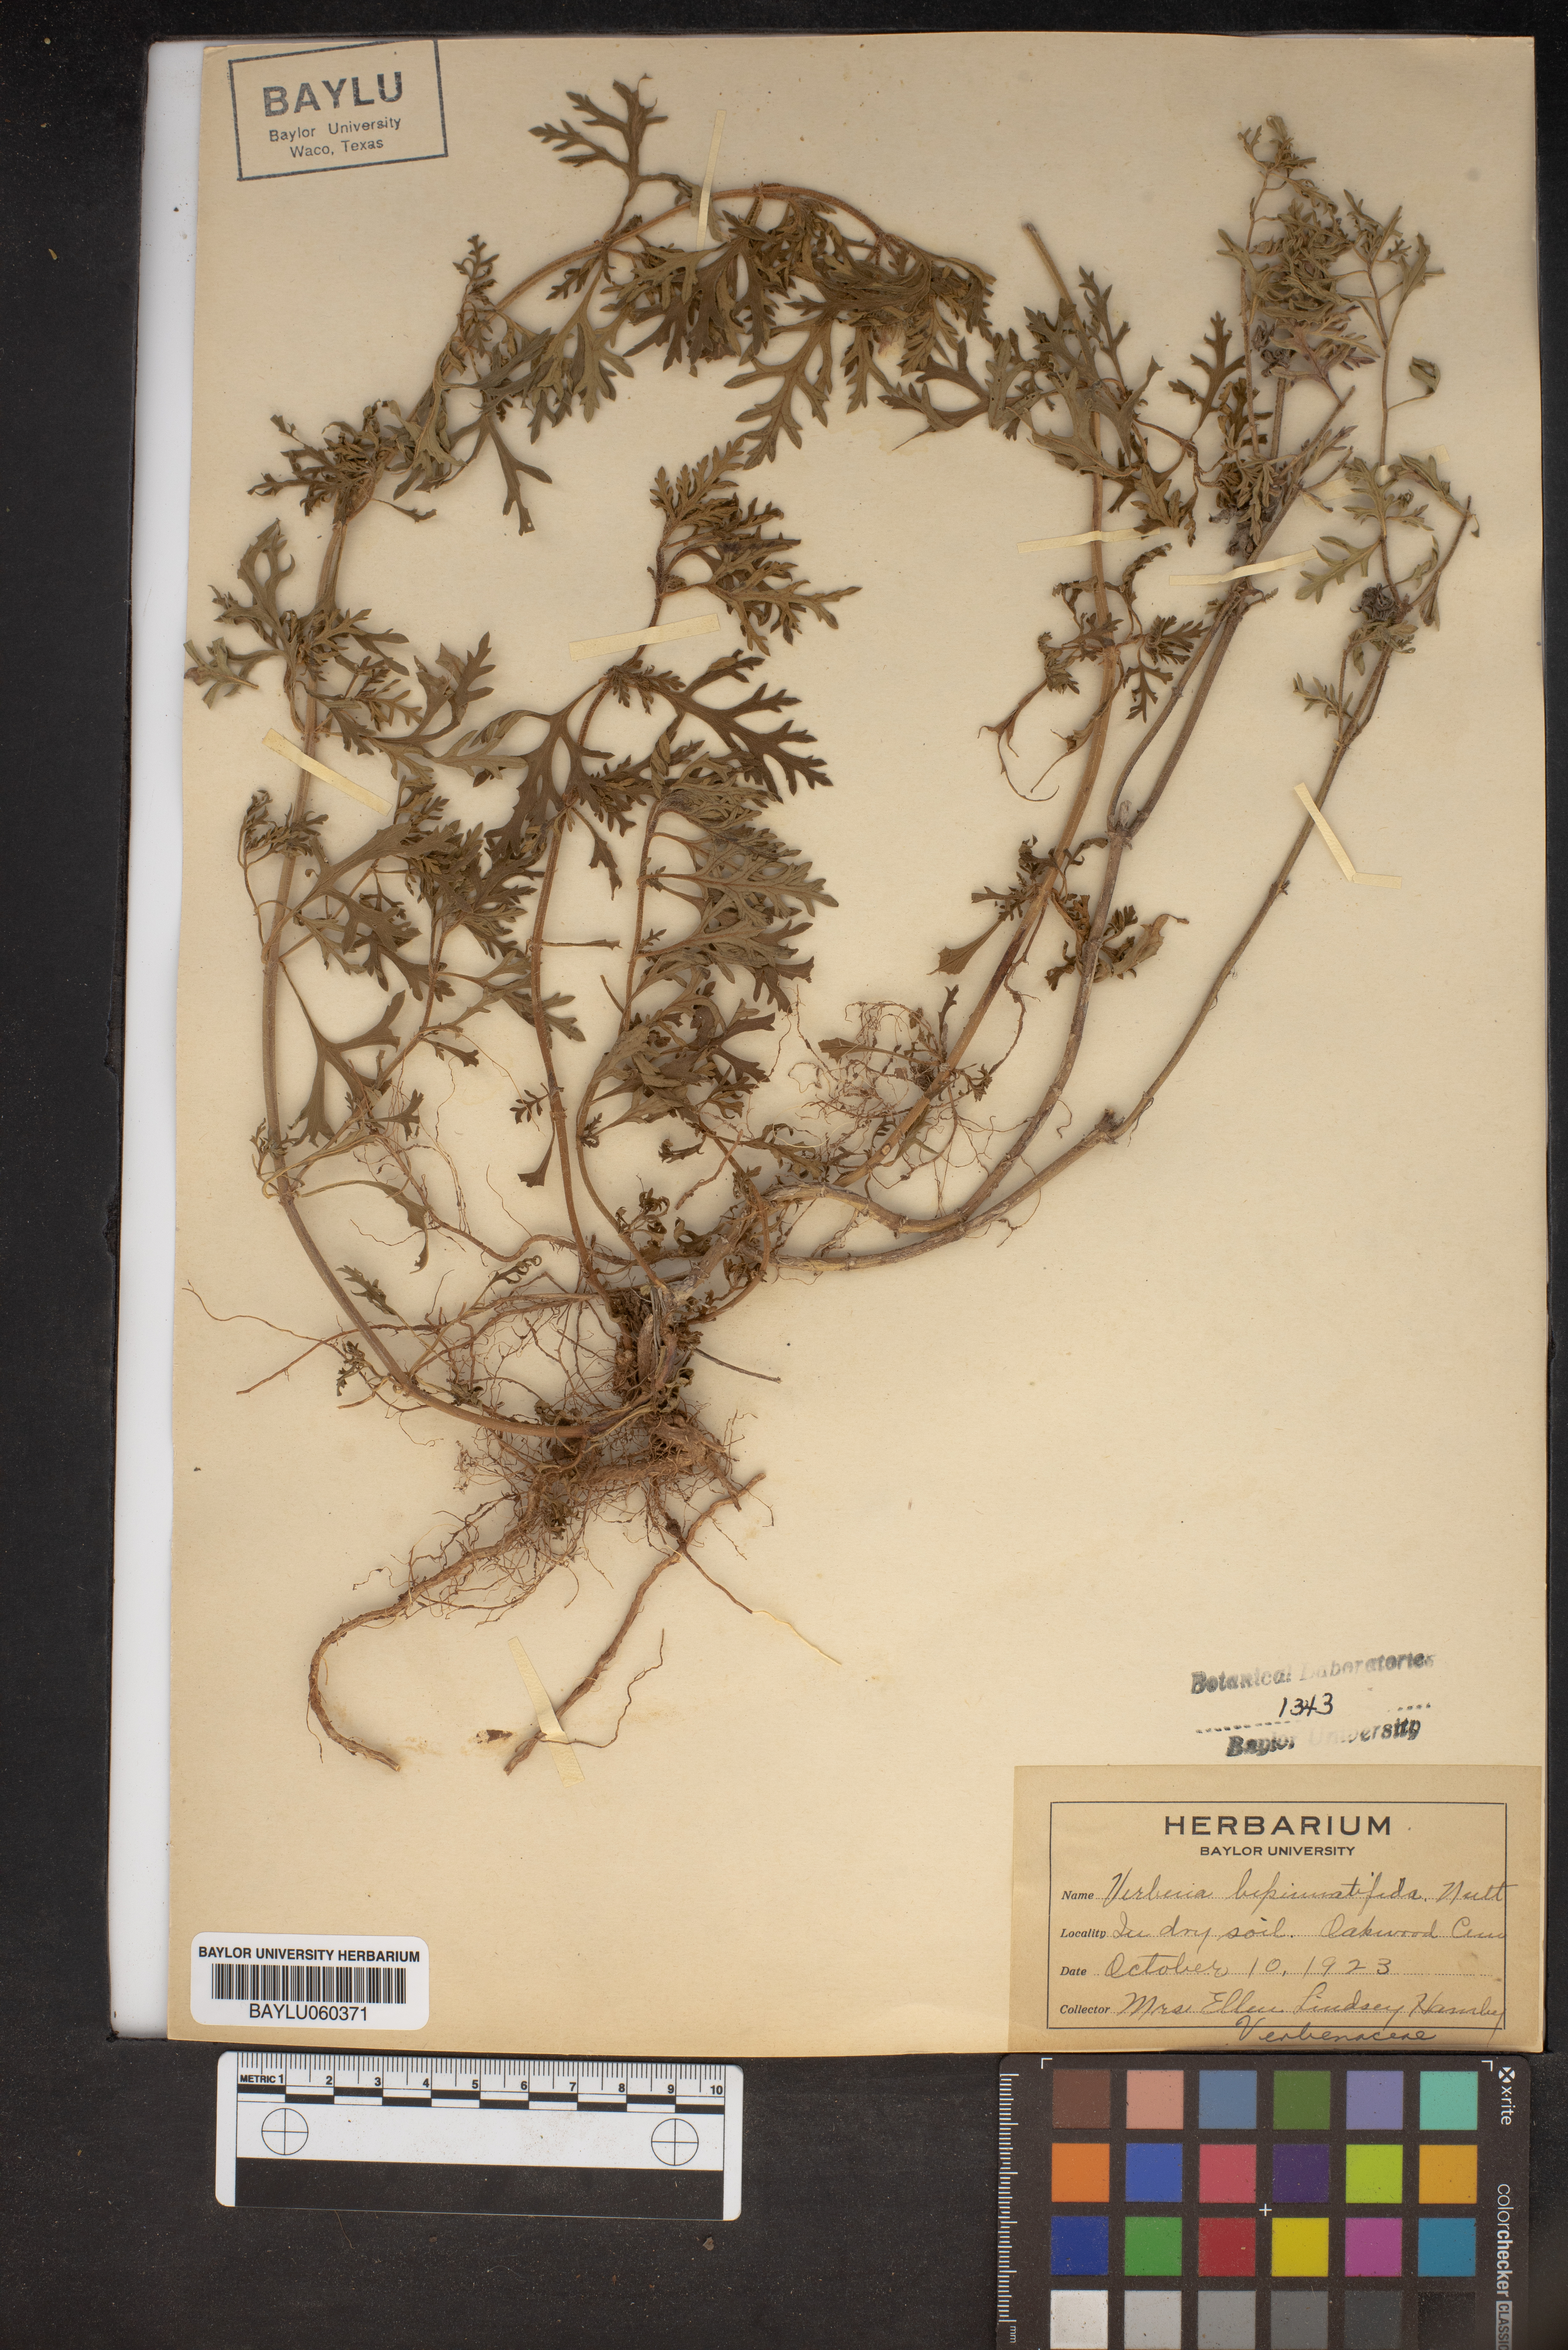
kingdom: Plantae
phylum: Tracheophyta
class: Magnoliopsida
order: Lamiales
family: Verbenaceae
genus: Verbena
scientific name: Verbena bipinnatifida
